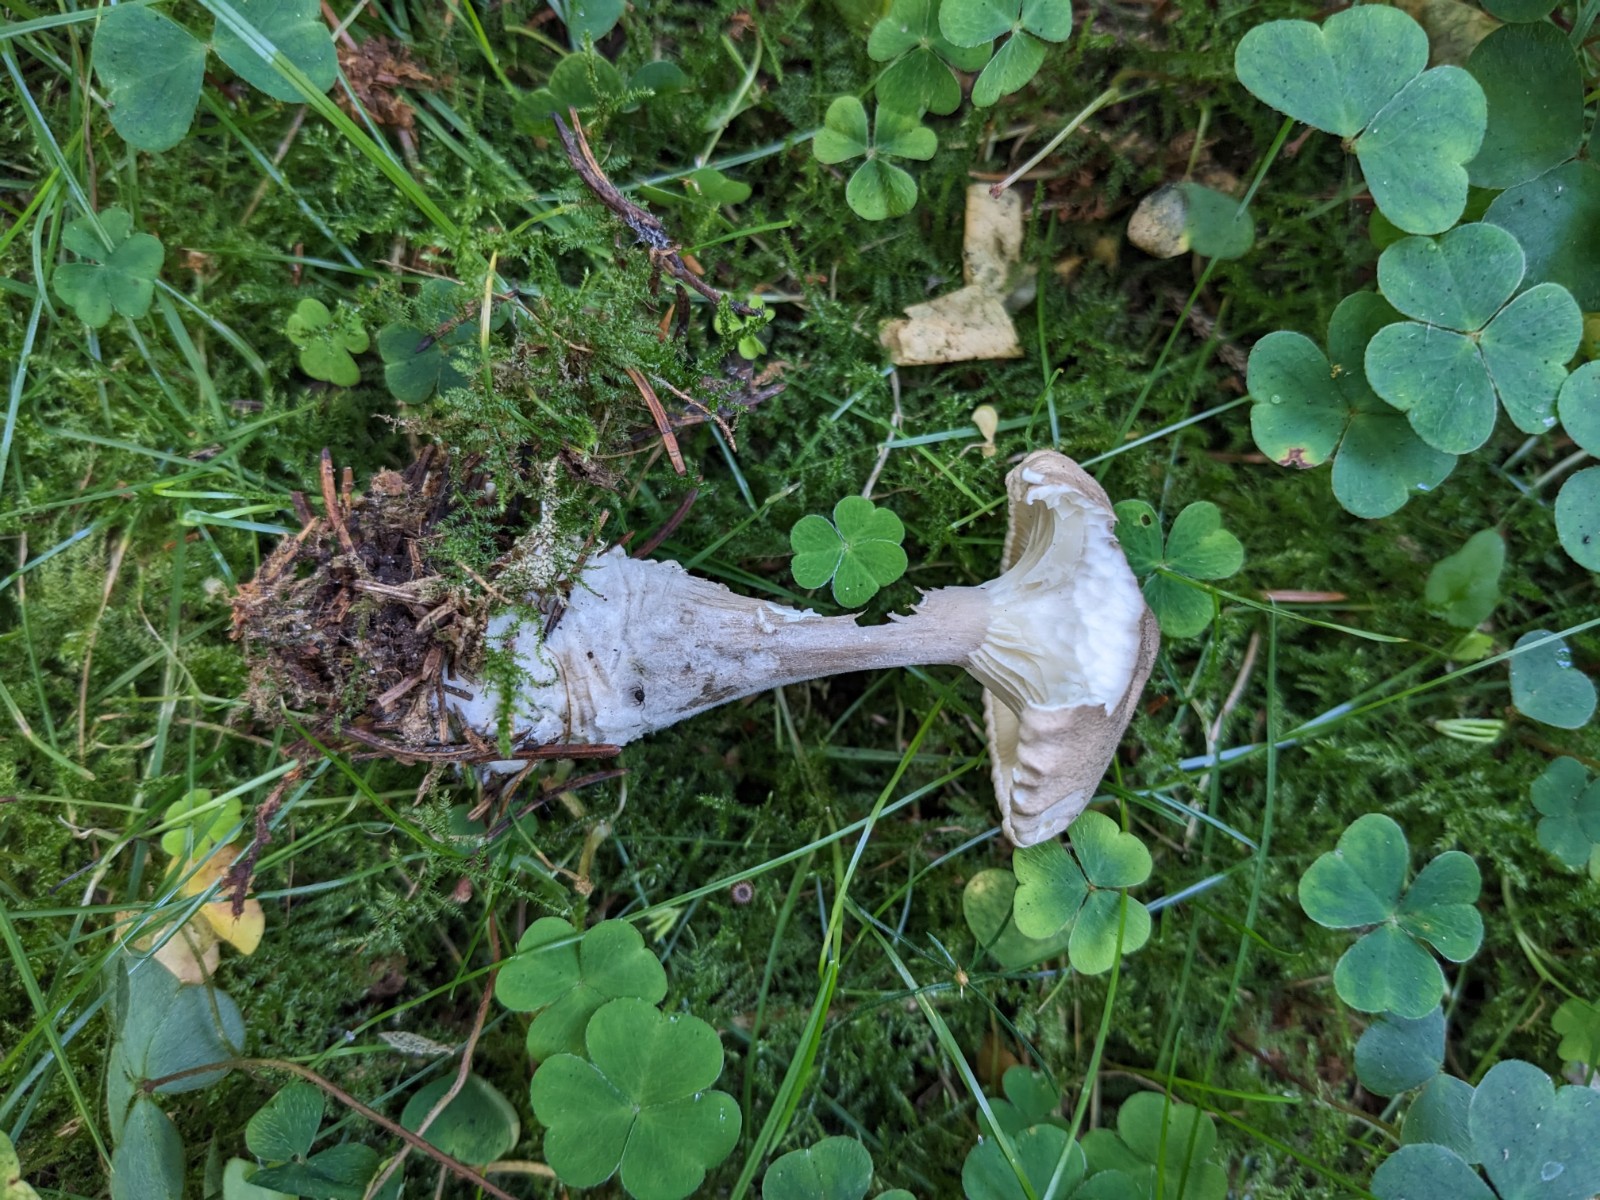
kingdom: Fungi
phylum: Basidiomycota
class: Agaricomycetes
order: Agaricales
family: Hygrophoraceae
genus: Ampulloclitocybe
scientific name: Ampulloclitocybe clavipes
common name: køllefod
